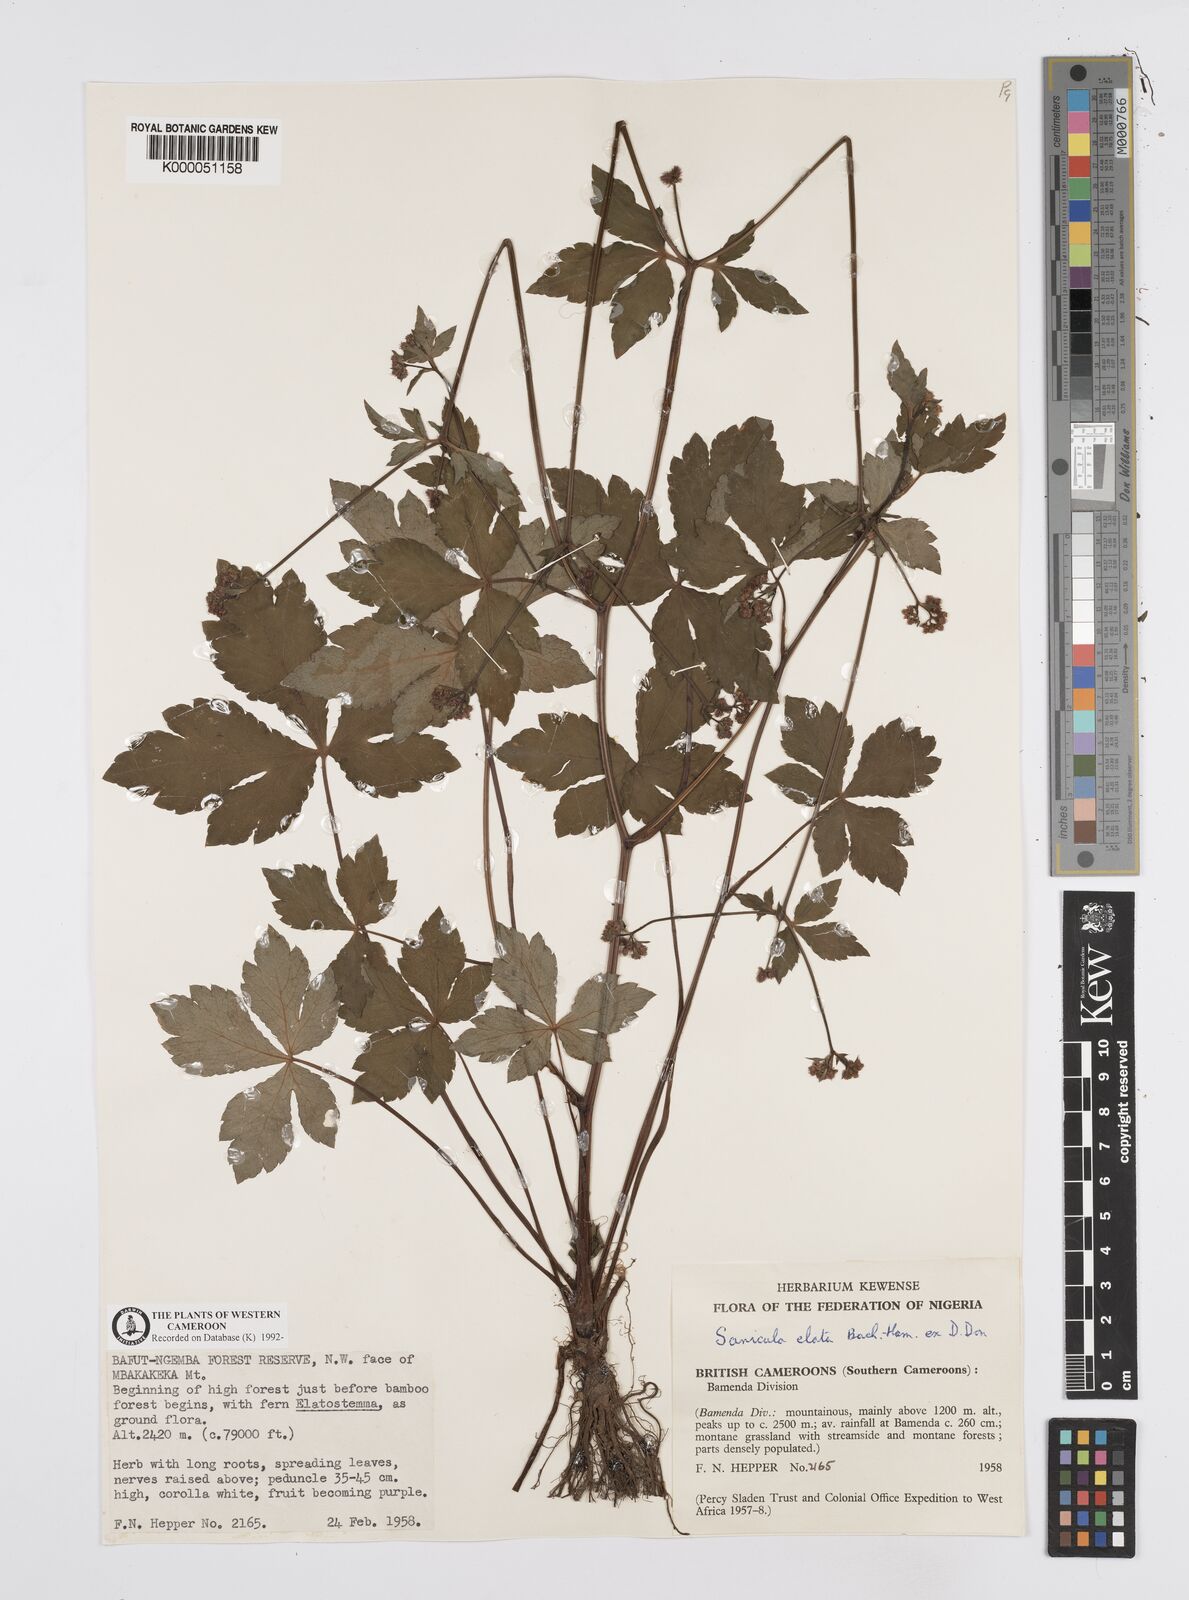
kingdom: Plantae
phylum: Tracheophyta
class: Magnoliopsida
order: Apiales
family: Apiaceae
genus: Sanicula
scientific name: Sanicula
